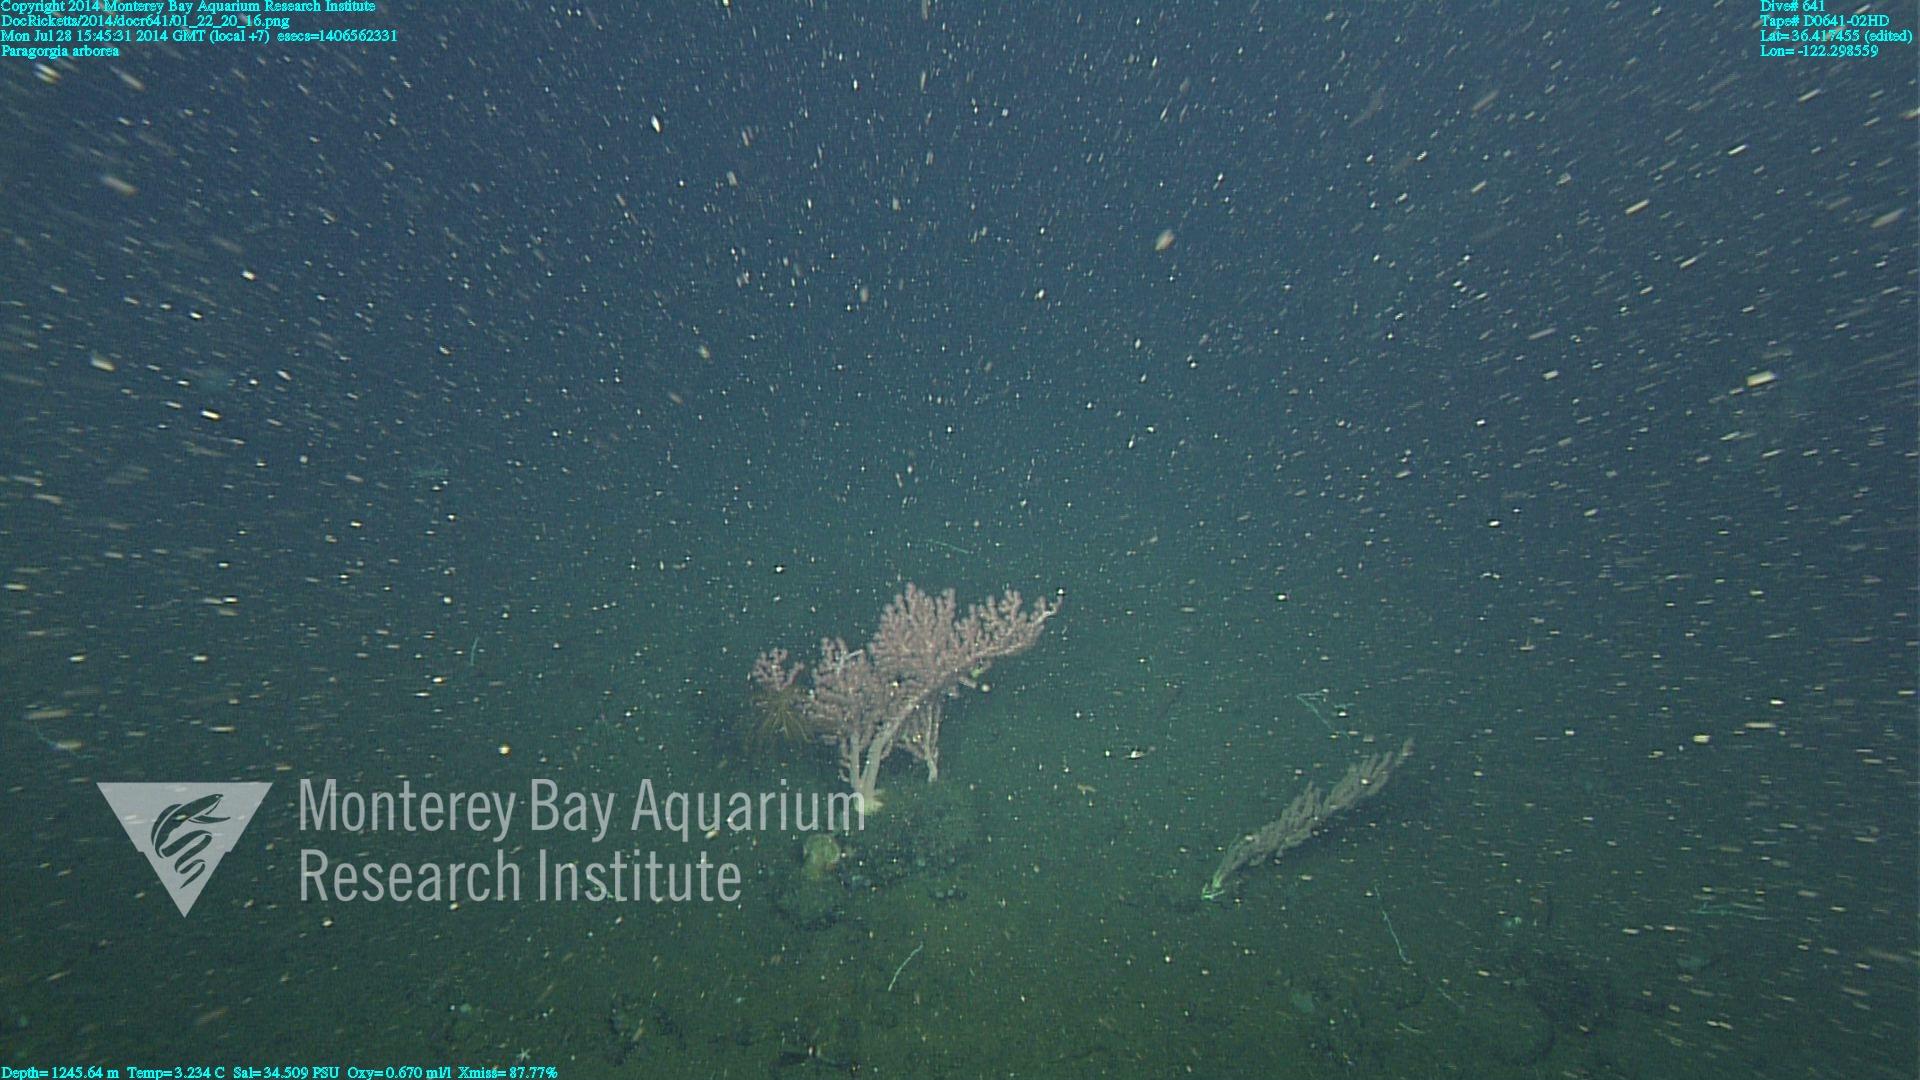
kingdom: Animalia
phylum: Cnidaria
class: Anthozoa
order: Scleralcyonacea
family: Coralliidae
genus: Paragorgia
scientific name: Paragorgia arborea
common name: Bubble gum coral
